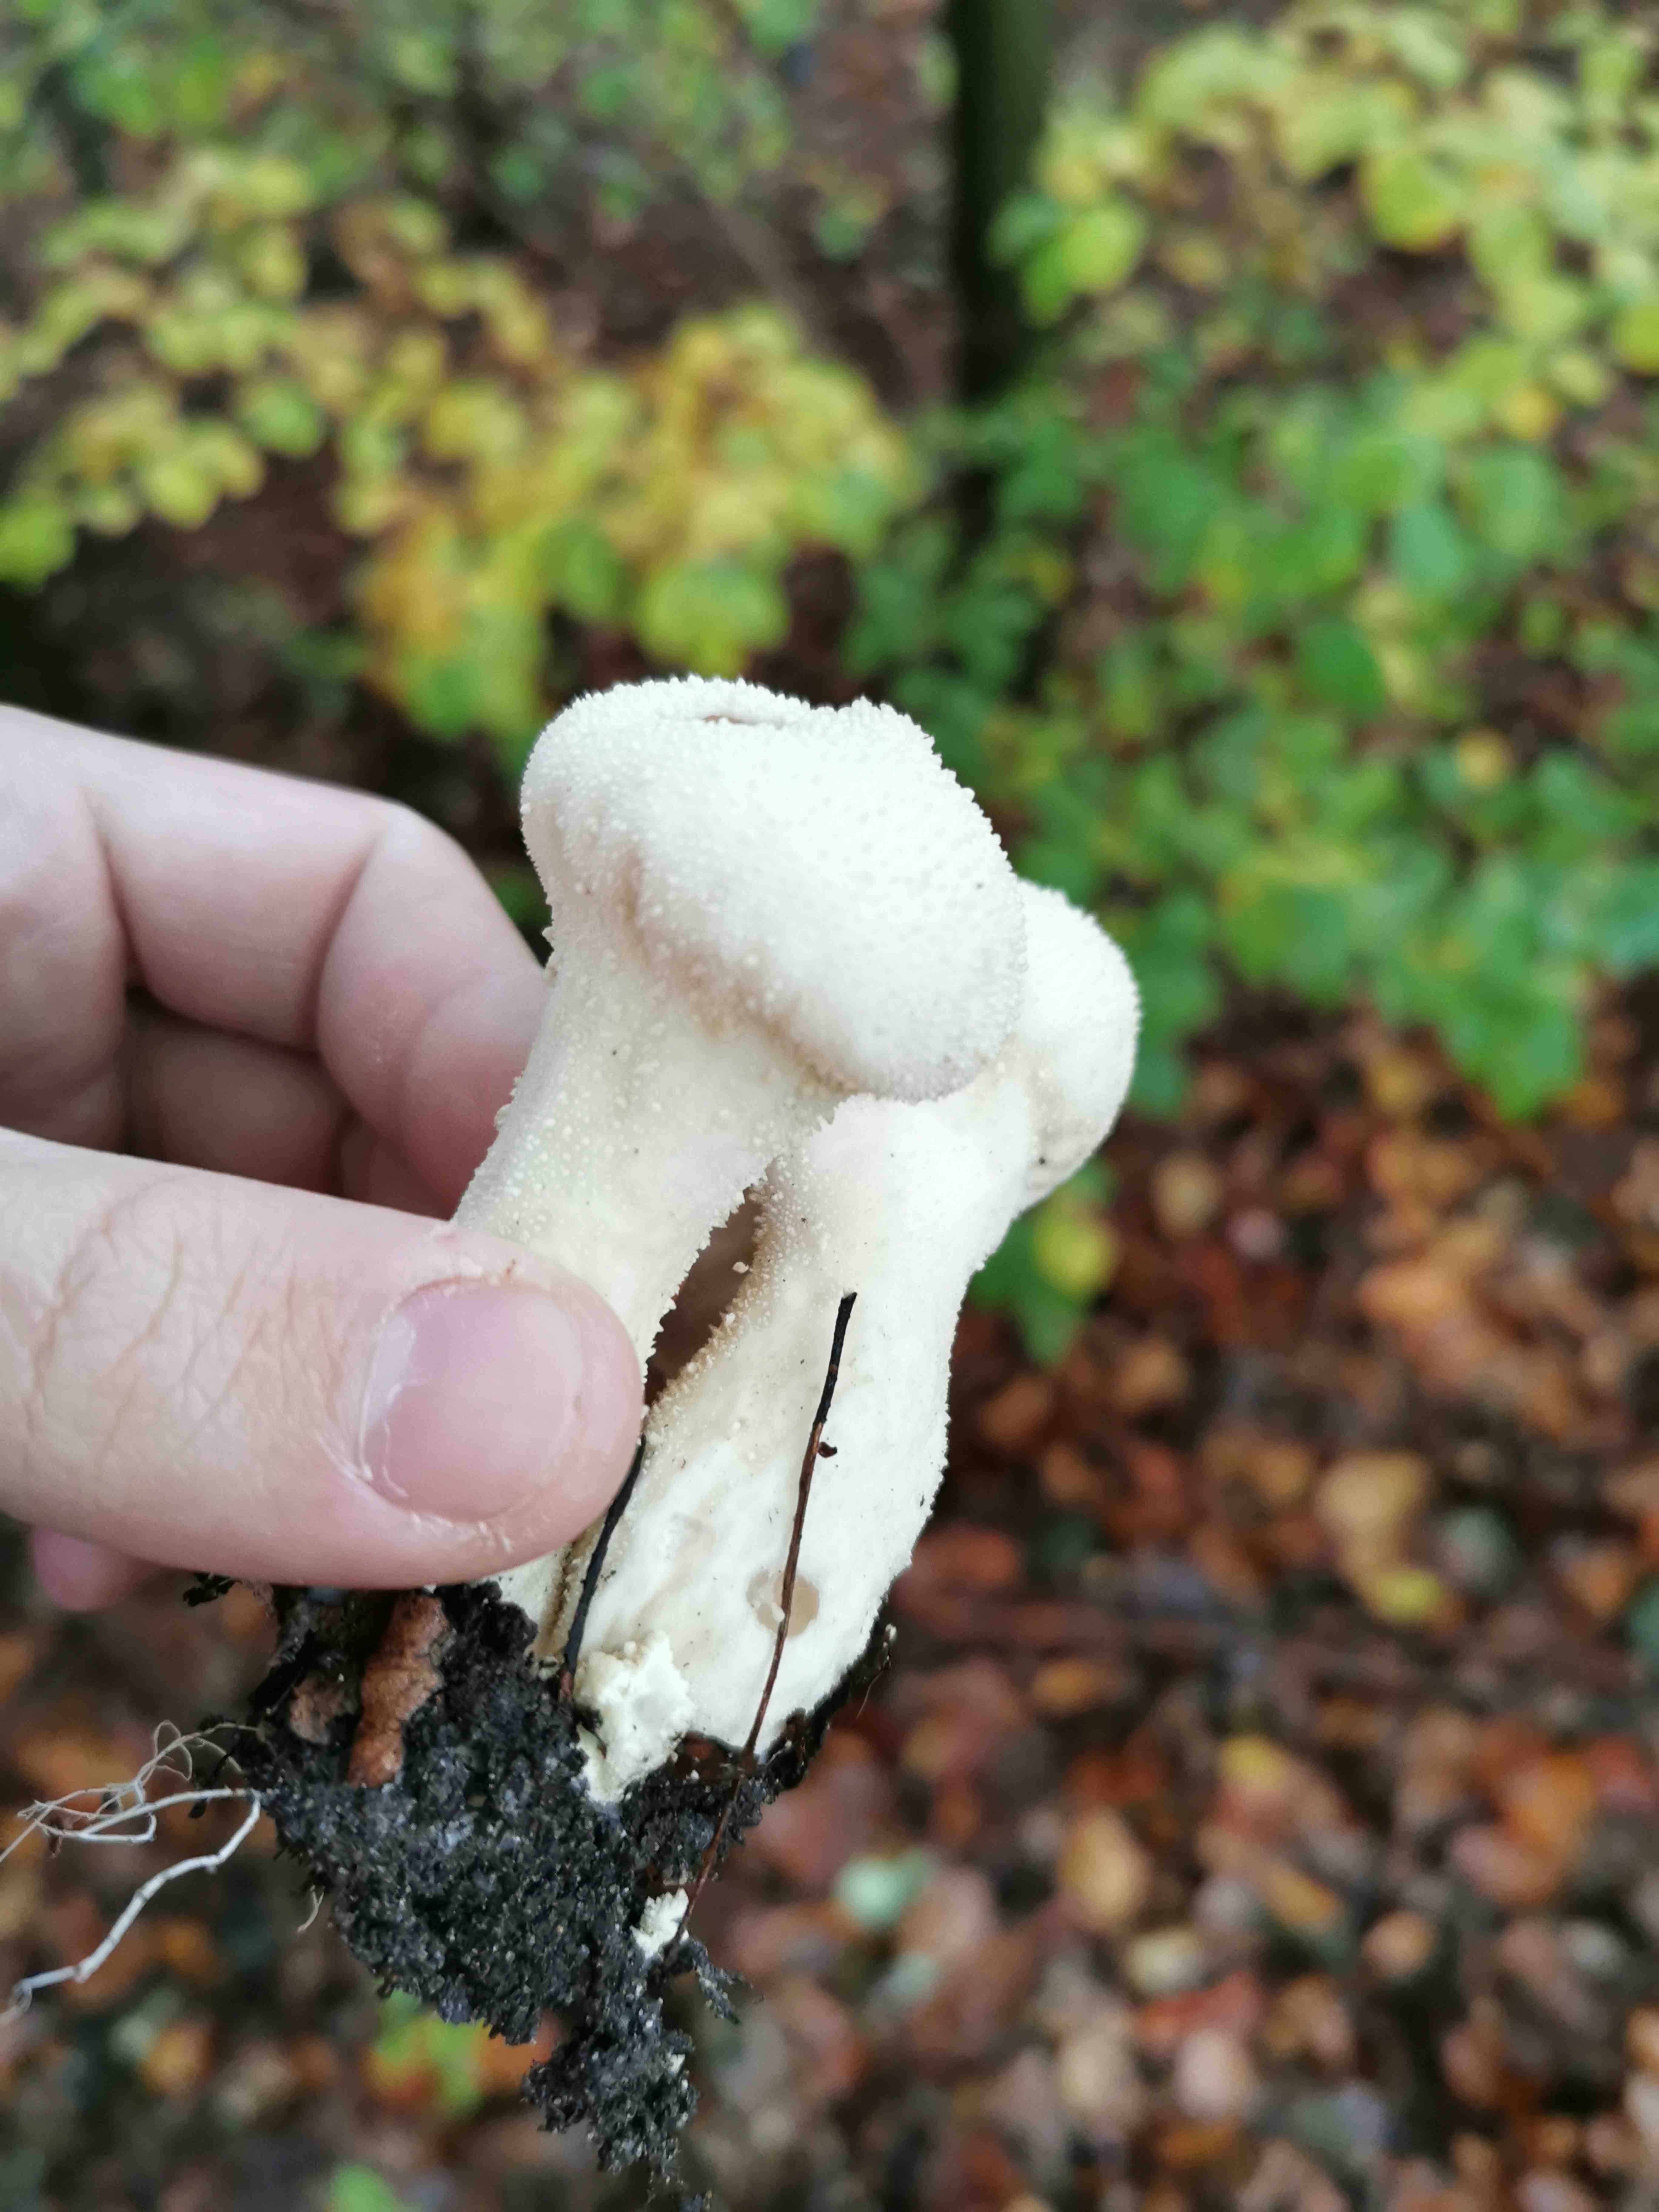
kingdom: Fungi
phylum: Basidiomycota
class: Agaricomycetes
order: Agaricales
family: Lycoperdaceae
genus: Lycoperdon
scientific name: Lycoperdon perlatum
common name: krystal-støvbold
